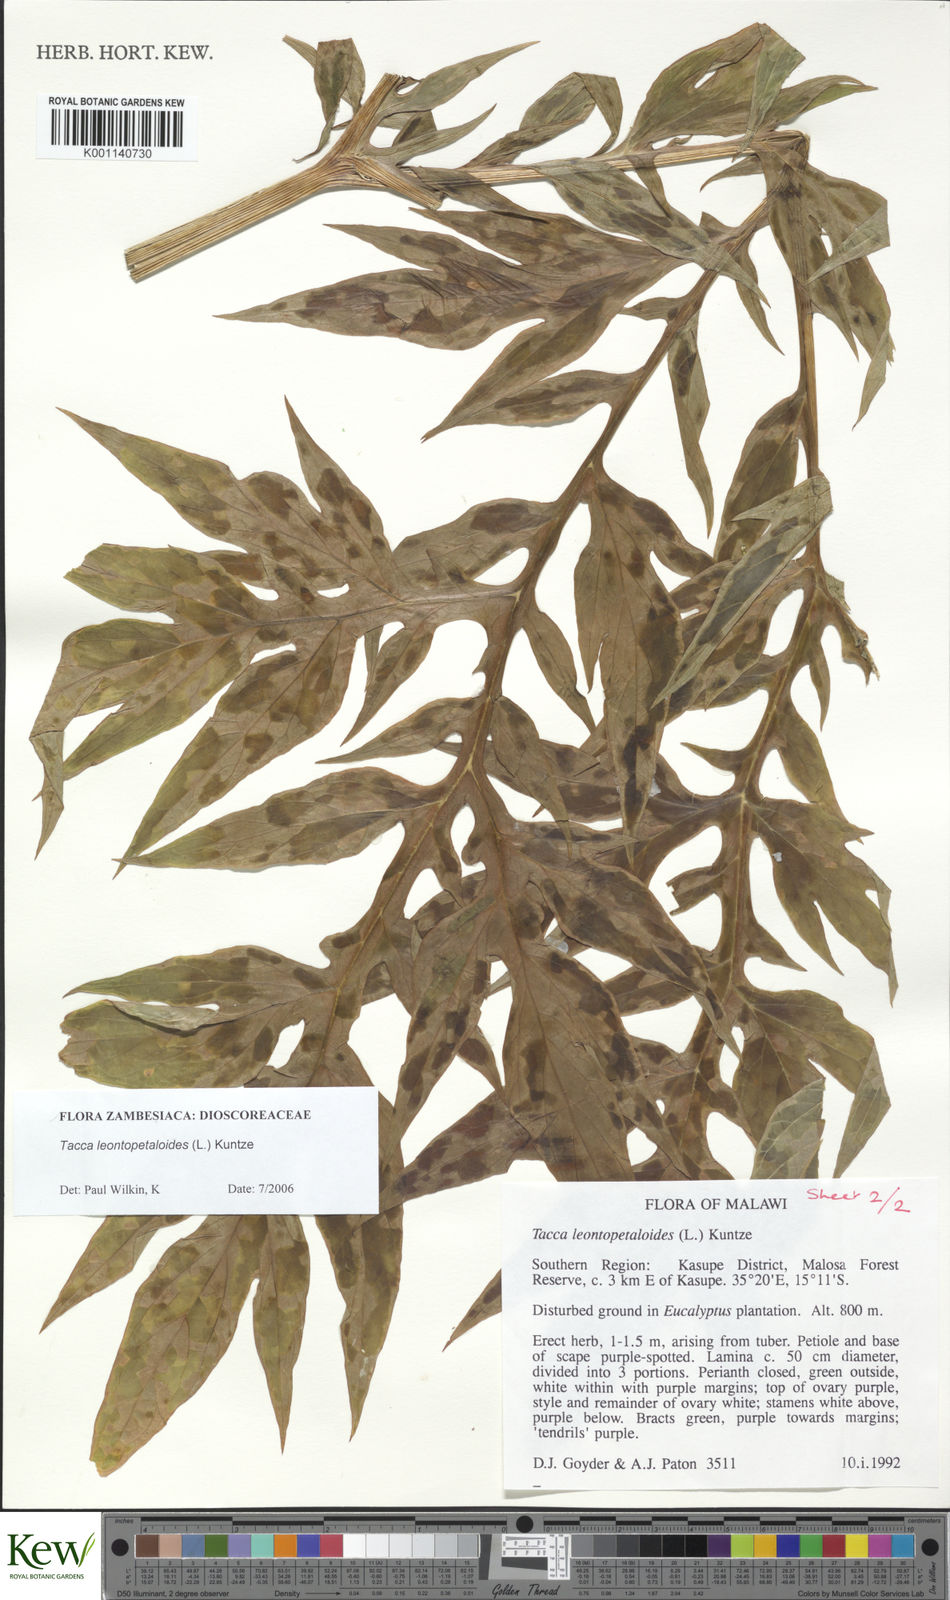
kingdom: Plantae
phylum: Tracheophyta
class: Liliopsida
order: Dioscoreales
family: Dioscoreaceae
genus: Tacca
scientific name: Tacca leontopetaloides
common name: Arrowroot
